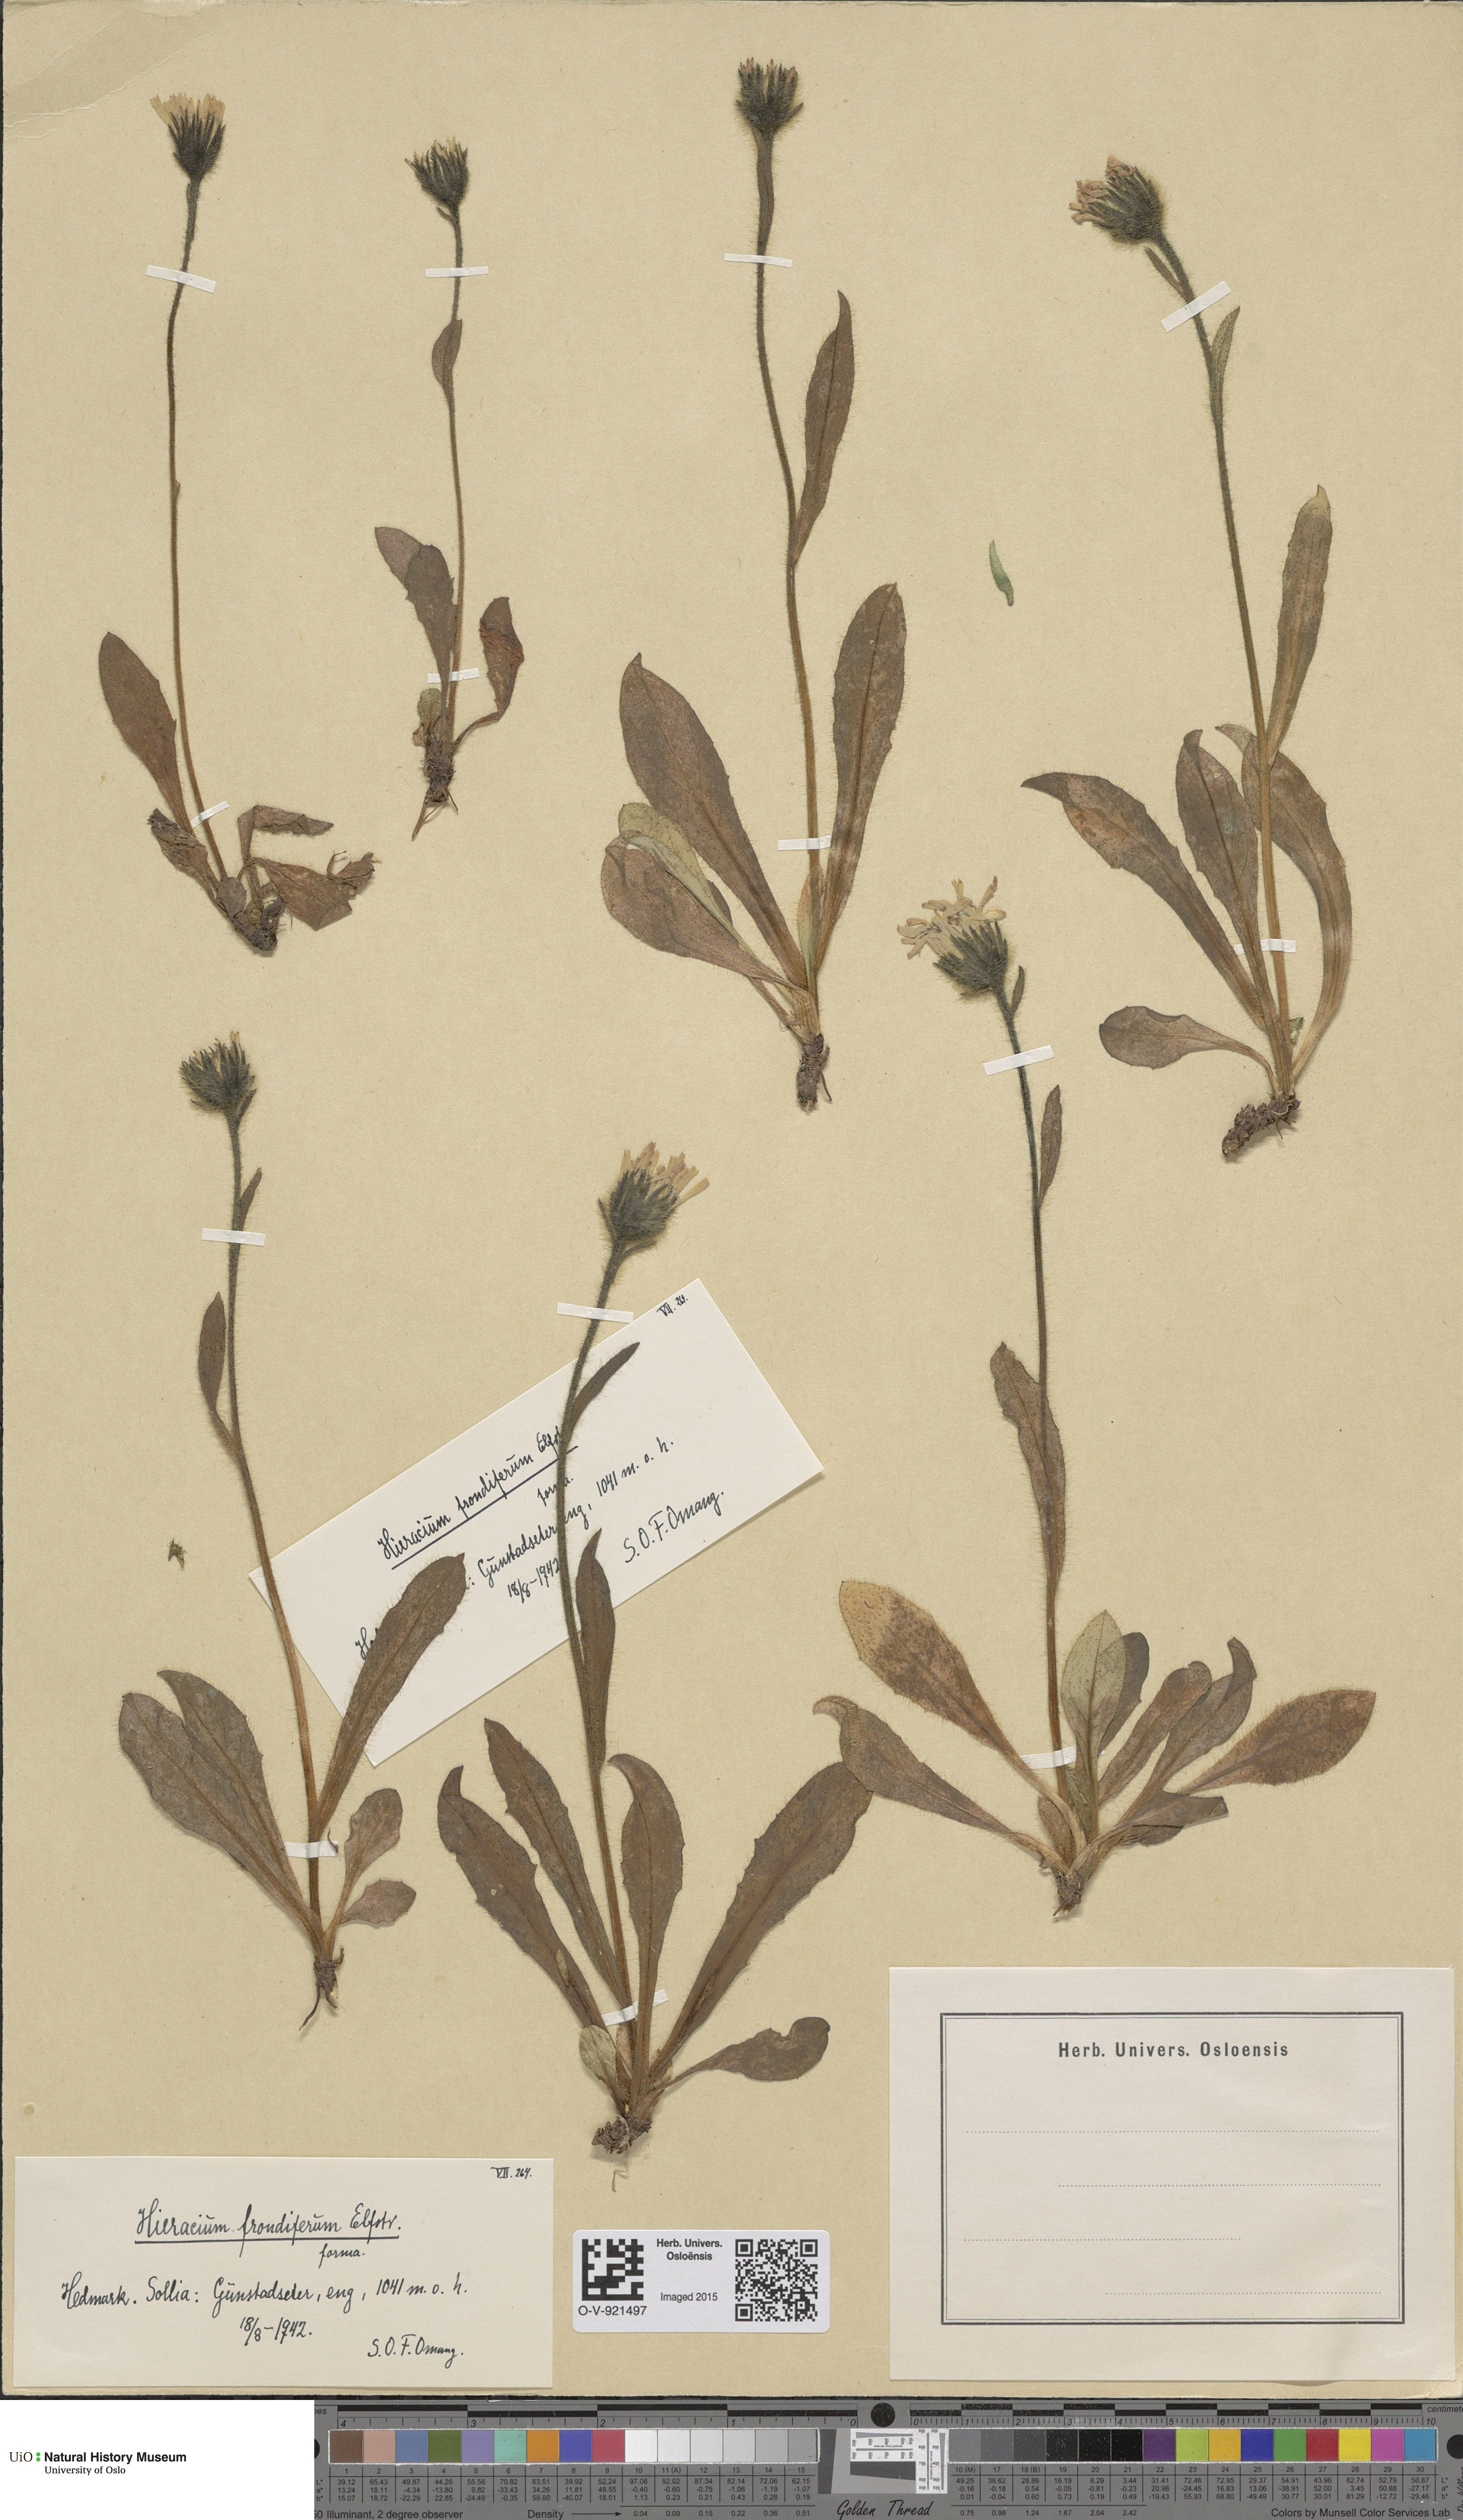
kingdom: Plantae
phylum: Tracheophyta
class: Magnoliopsida
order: Asterales
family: Asteraceae
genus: Hieracium
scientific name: Hieracium alpinum
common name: Alpine hawkweed
